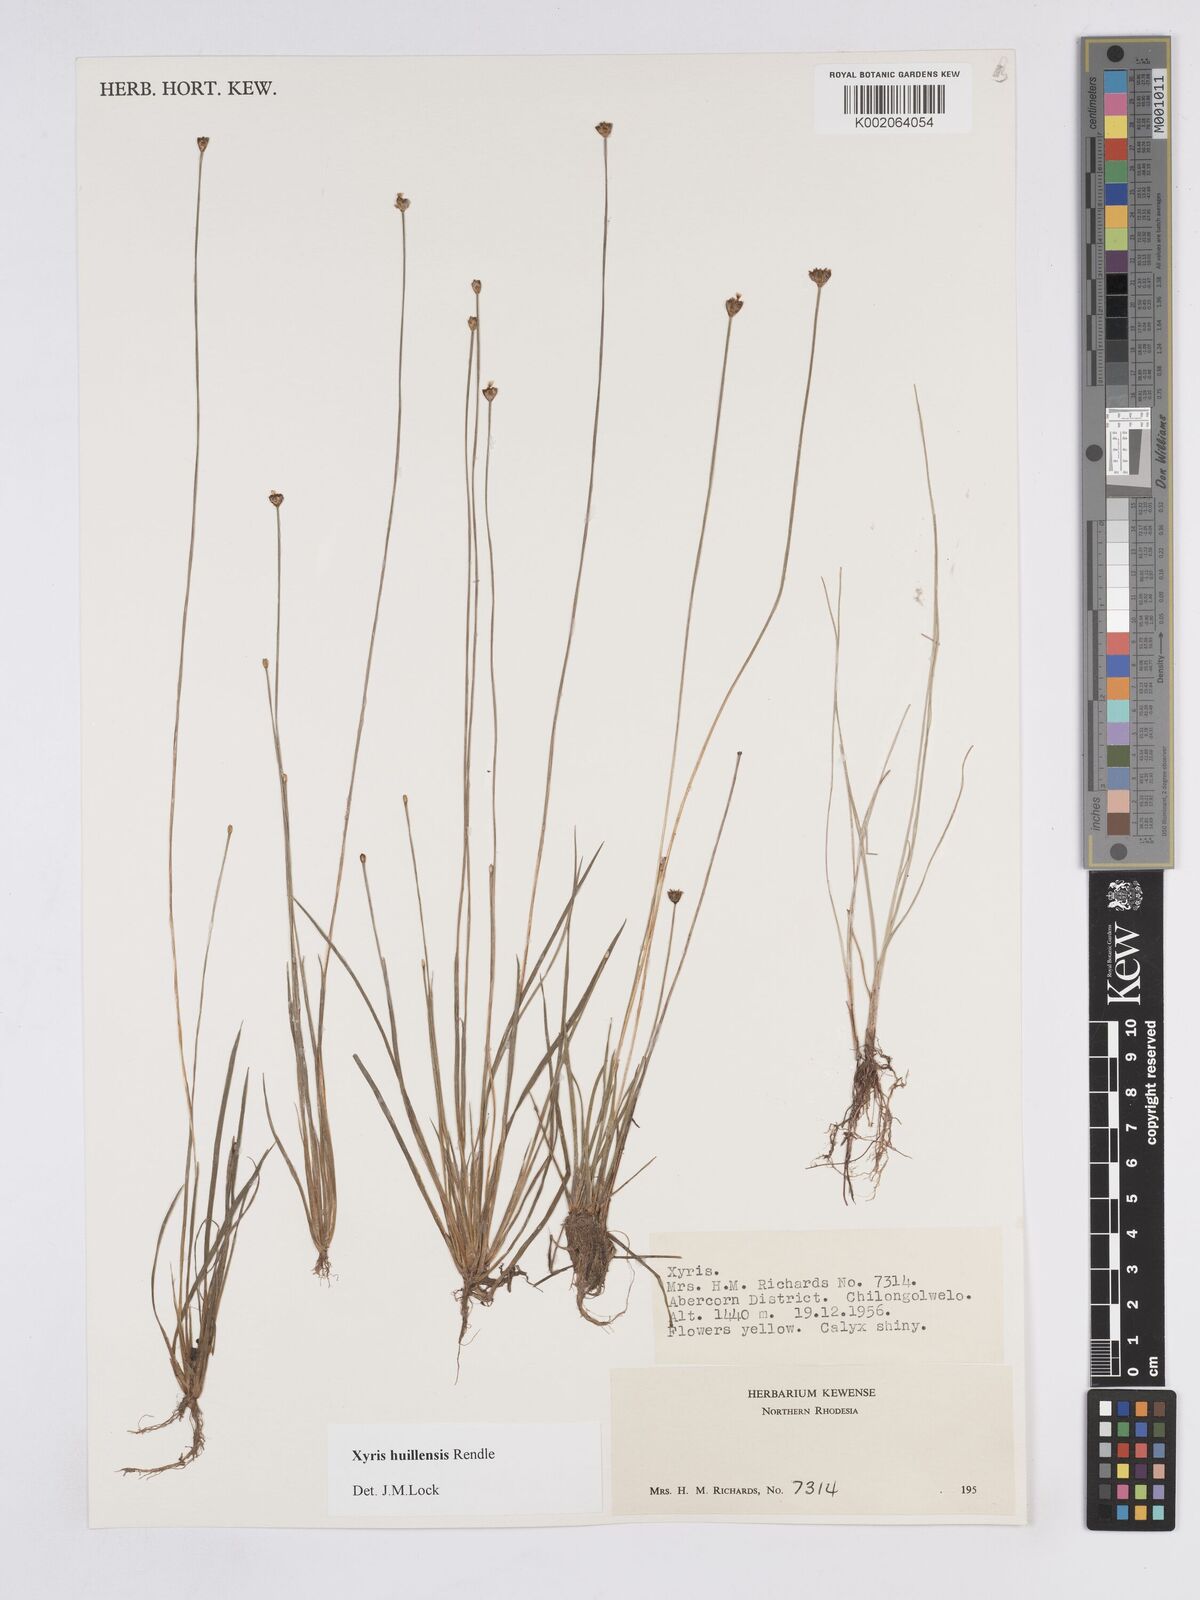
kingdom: Plantae
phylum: Tracheophyta
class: Liliopsida
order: Poales
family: Xyridaceae
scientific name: Xyridaceae
